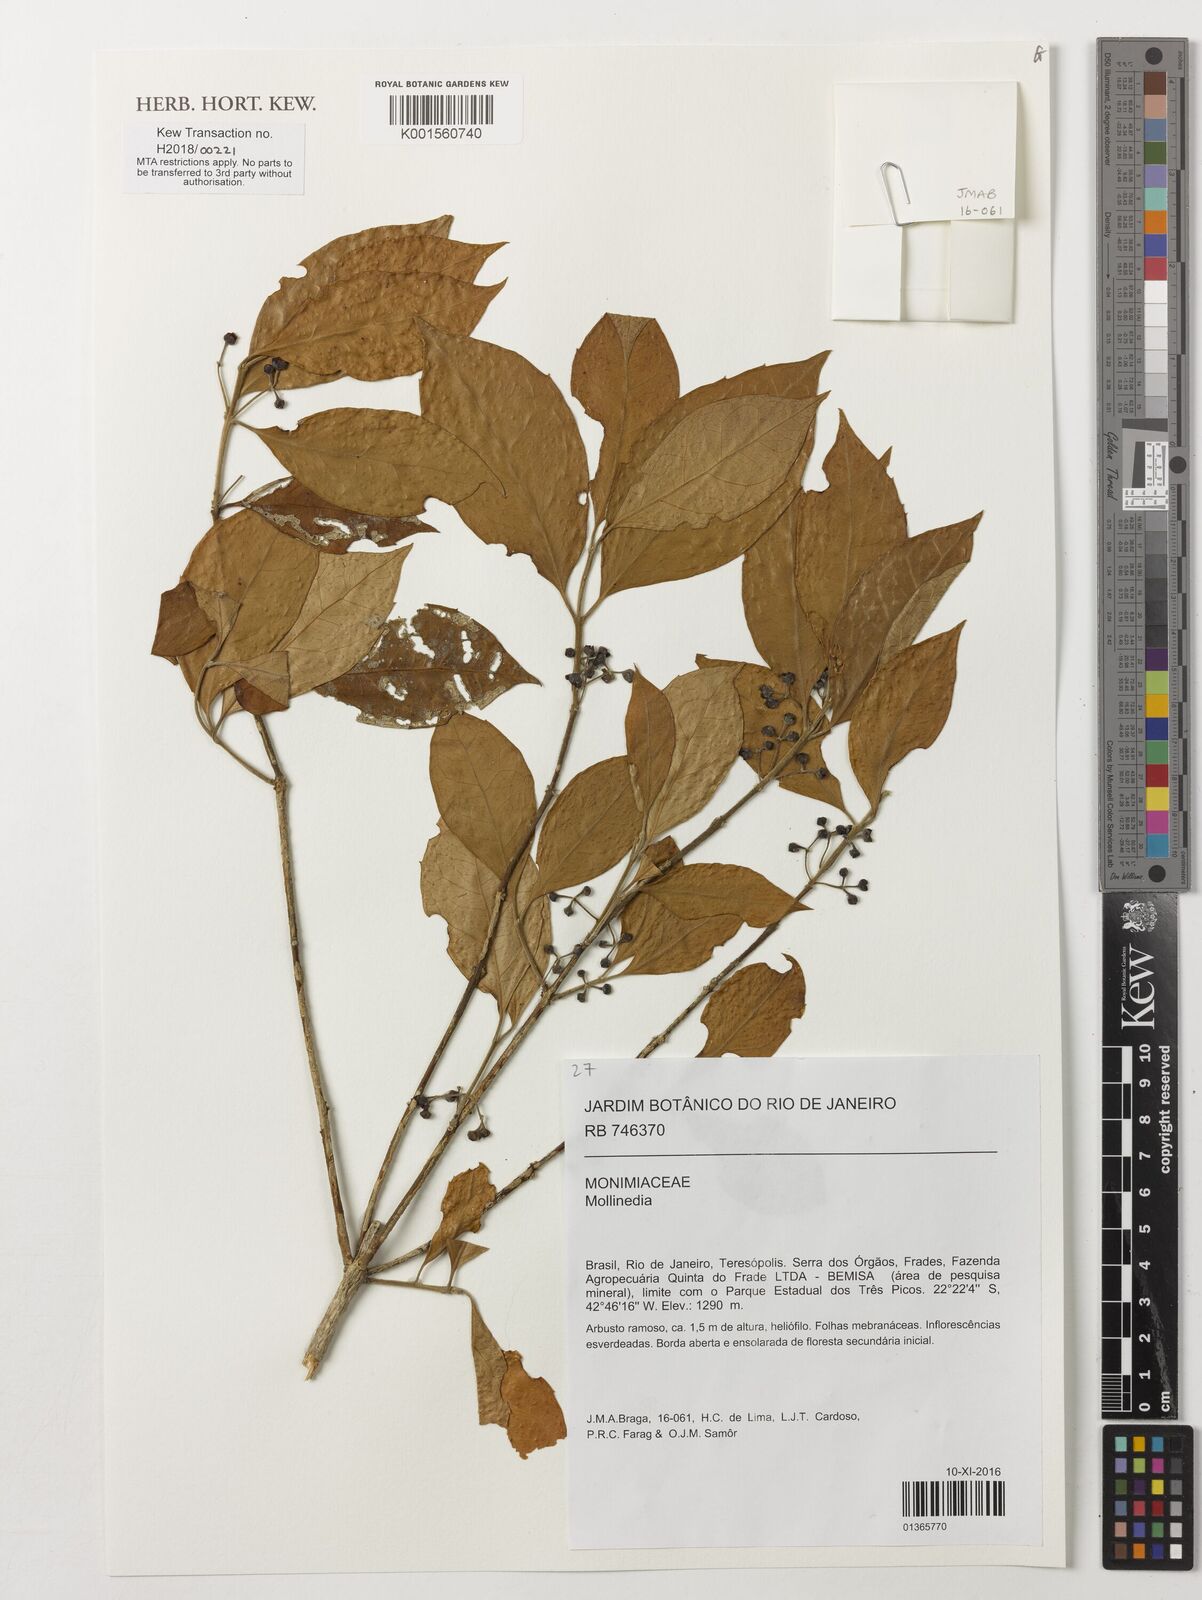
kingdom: Plantae
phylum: Tracheophyta
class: Magnoliopsida
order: Laurales
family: Monimiaceae
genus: Mollinedia
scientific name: Mollinedia
